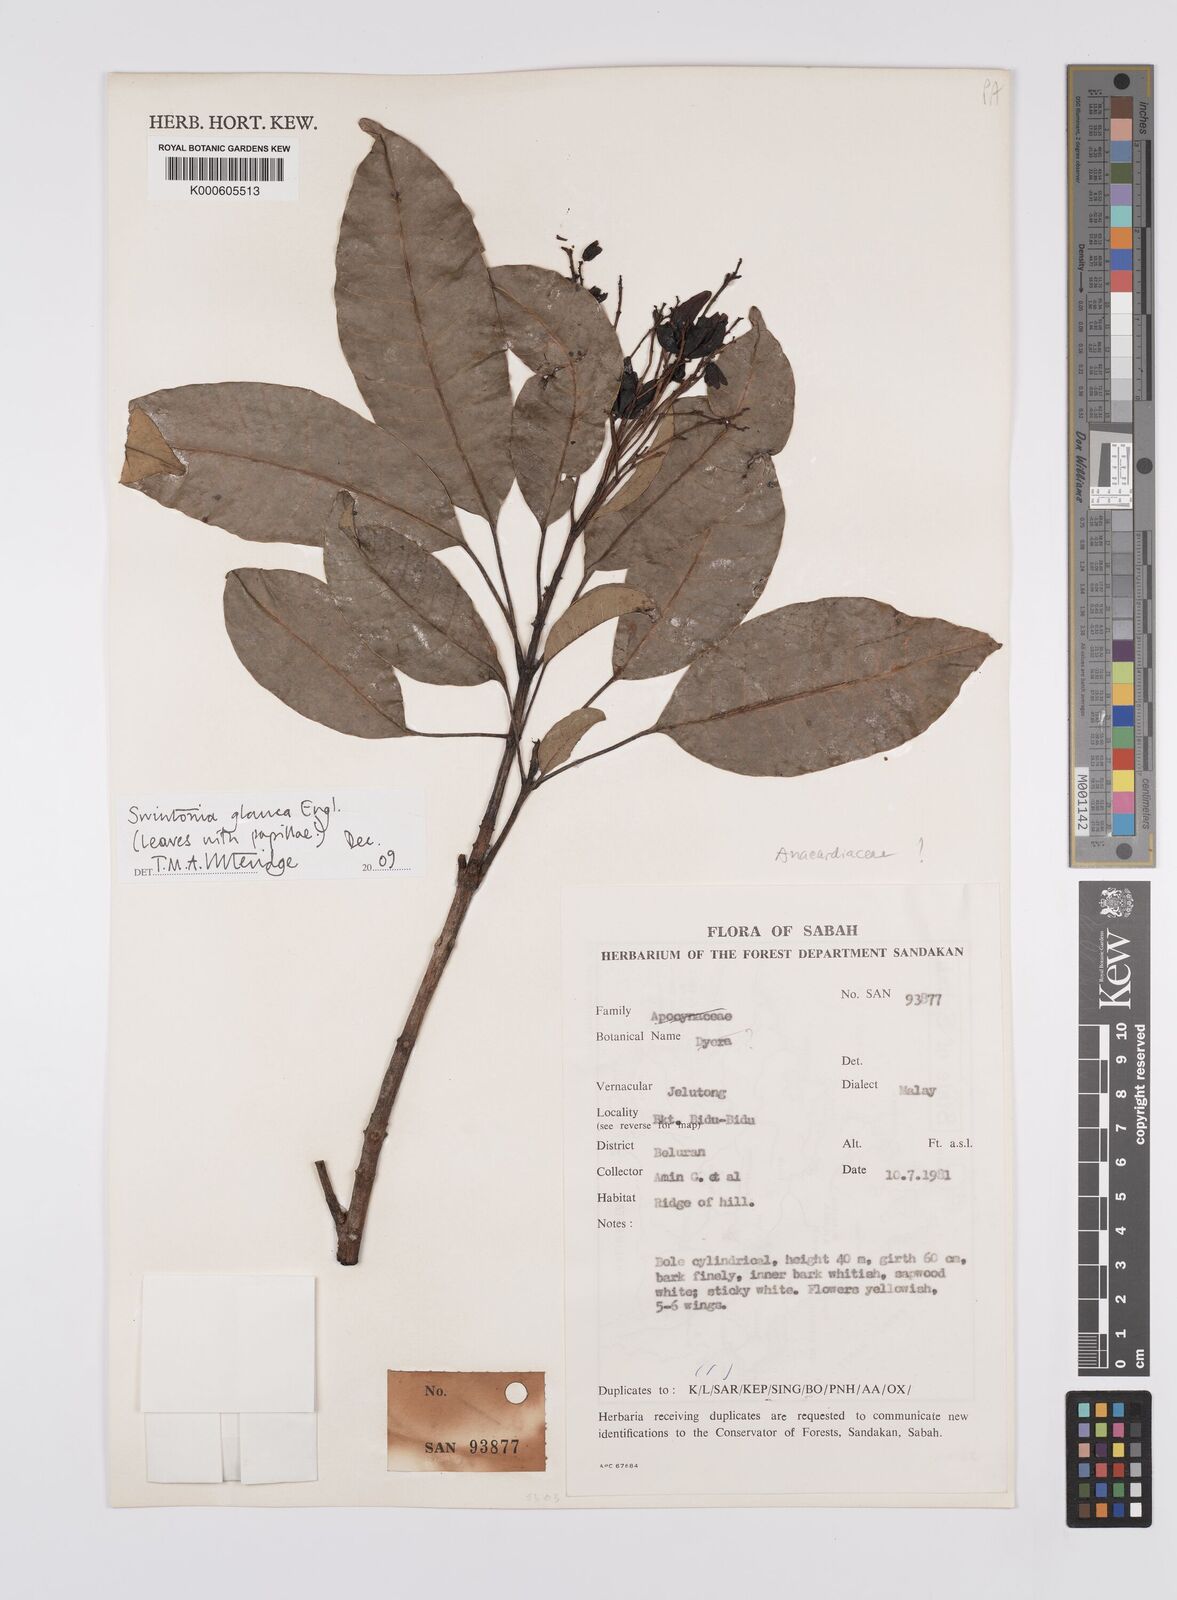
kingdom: Plantae
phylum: Tracheophyta
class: Magnoliopsida
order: Sapindales
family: Anacardiaceae
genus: Swintonia
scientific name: Swintonia glauca
